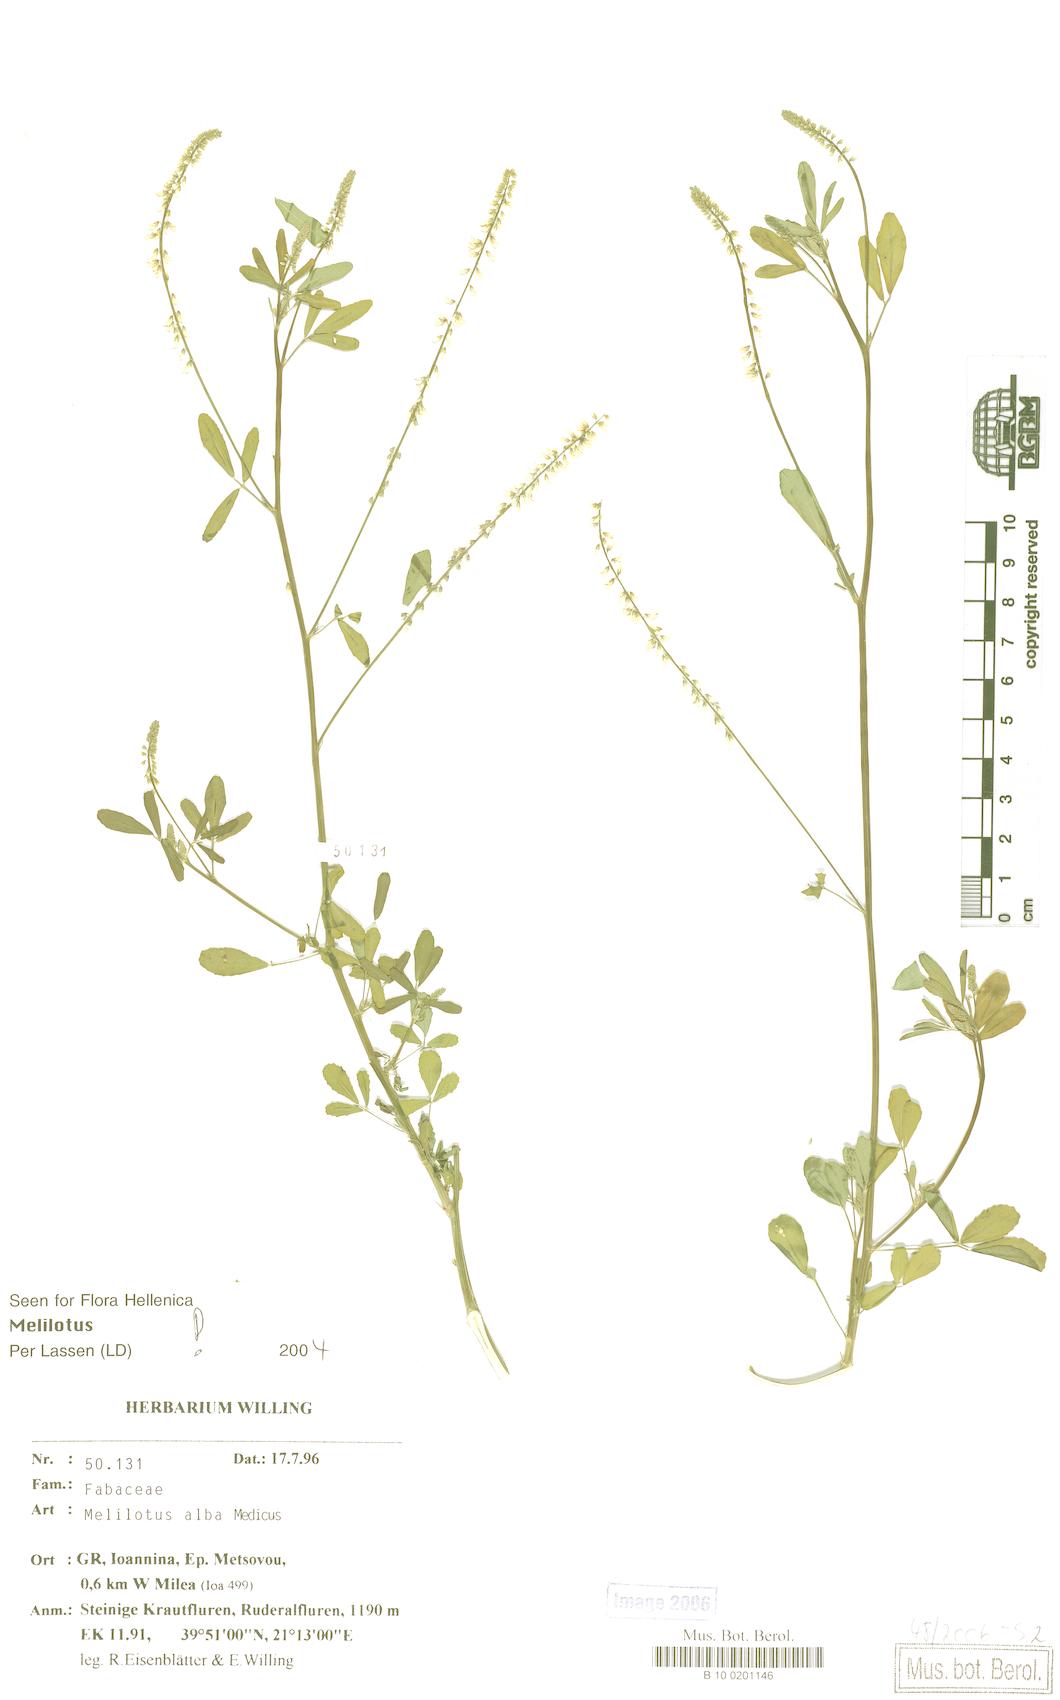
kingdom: Plantae
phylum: Tracheophyta
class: Magnoliopsida
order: Fabales
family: Fabaceae
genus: Melilotus
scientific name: Melilotus albus
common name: White melilot
